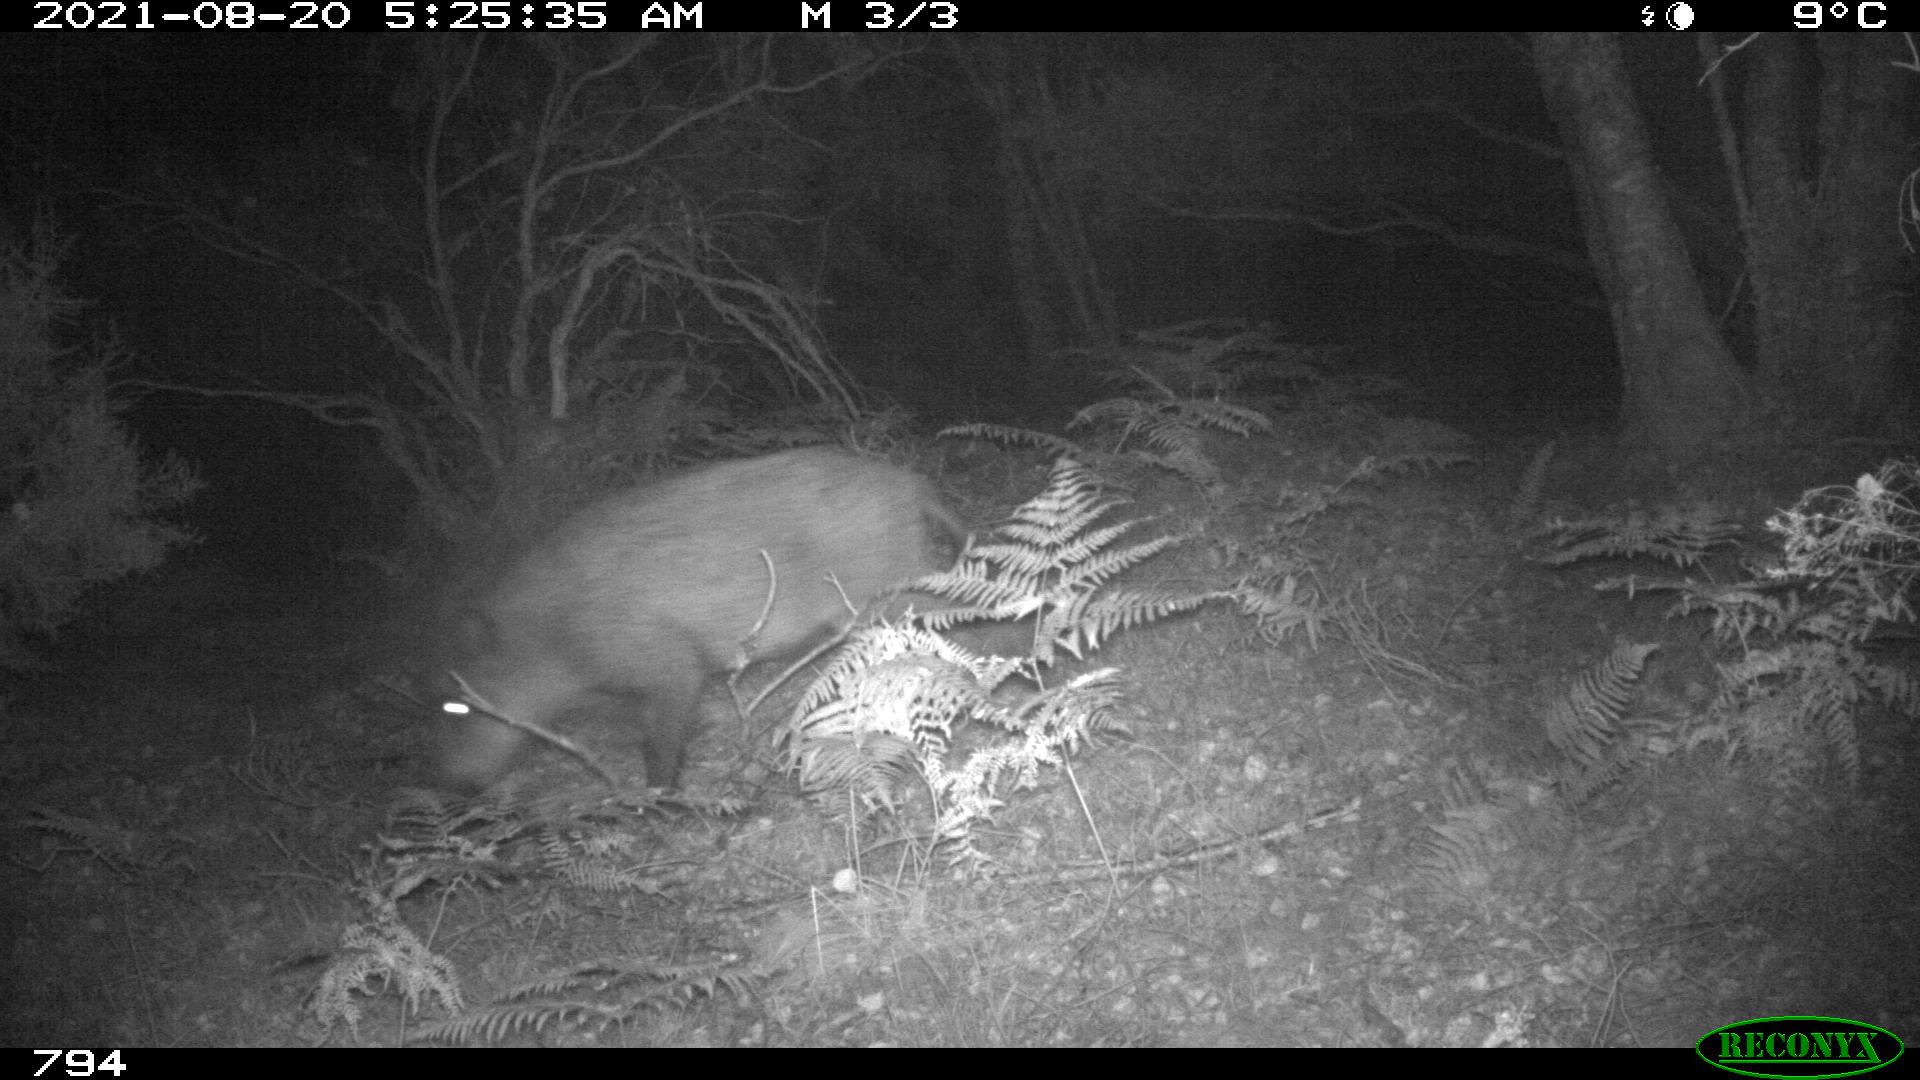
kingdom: Animalia
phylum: Chordata
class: Mammalia
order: Artiodactyla
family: Suidae
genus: Sus
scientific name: Sus scrofa
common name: Wild boar
